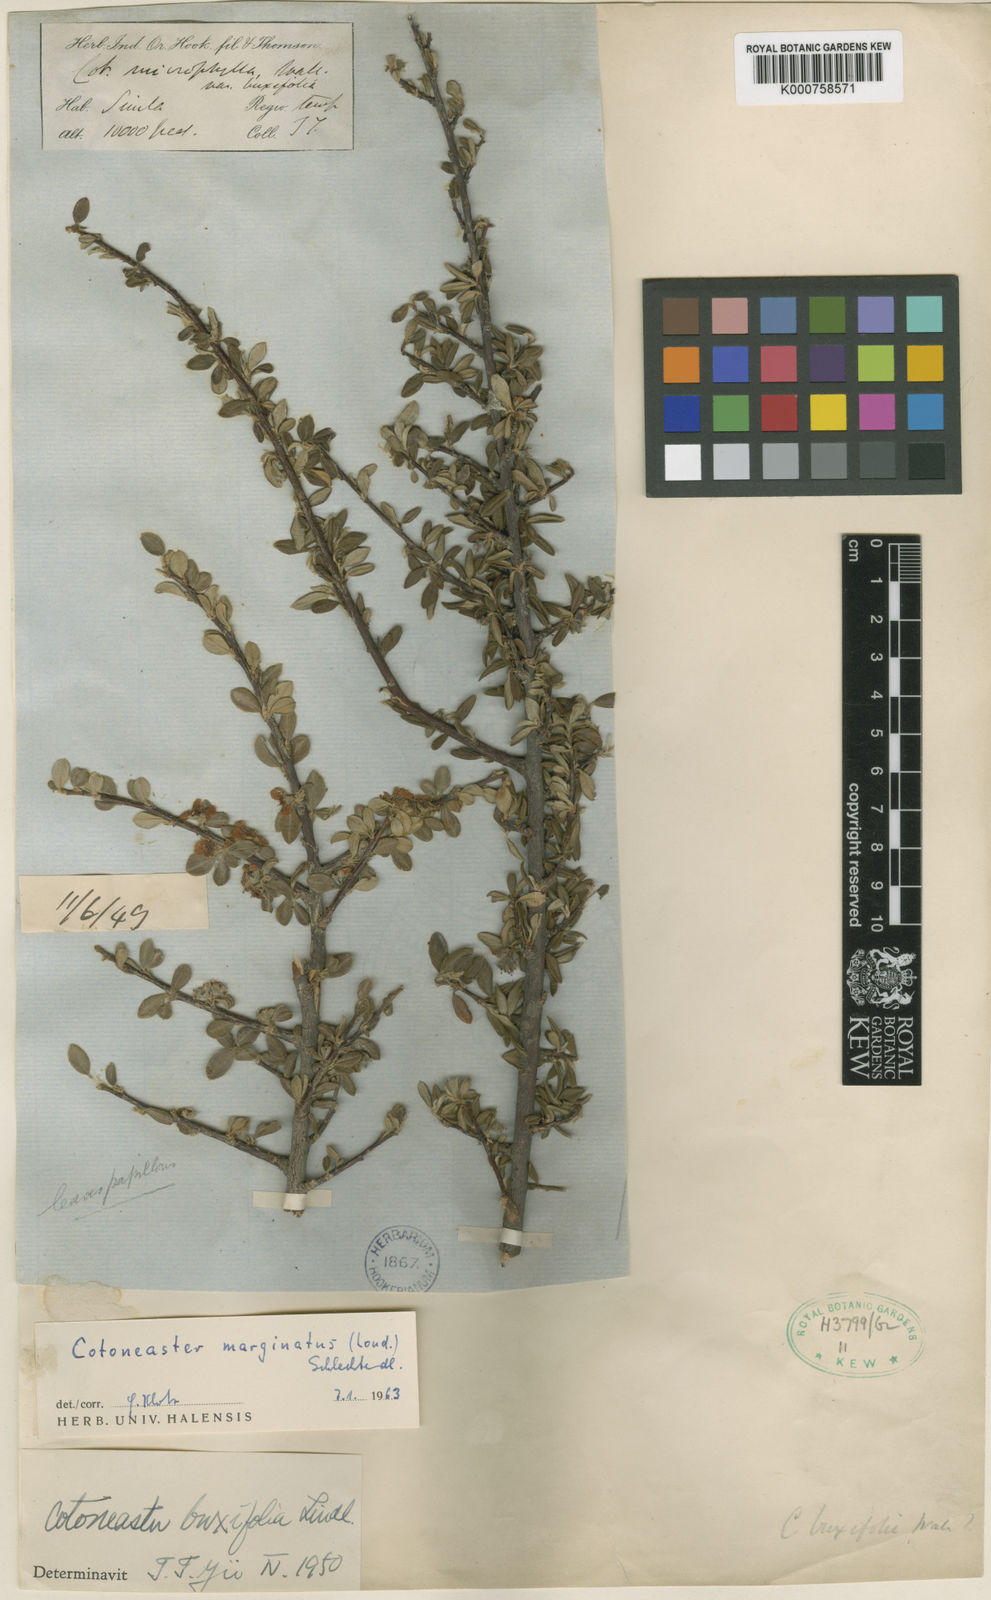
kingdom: Plantae
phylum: Tracheophyta
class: Magnoliopsida
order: Rosales
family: Rosaceae
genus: Cotoneaster
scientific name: Cotoneaster integrifolius
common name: Entire-leaved cotoneaster
